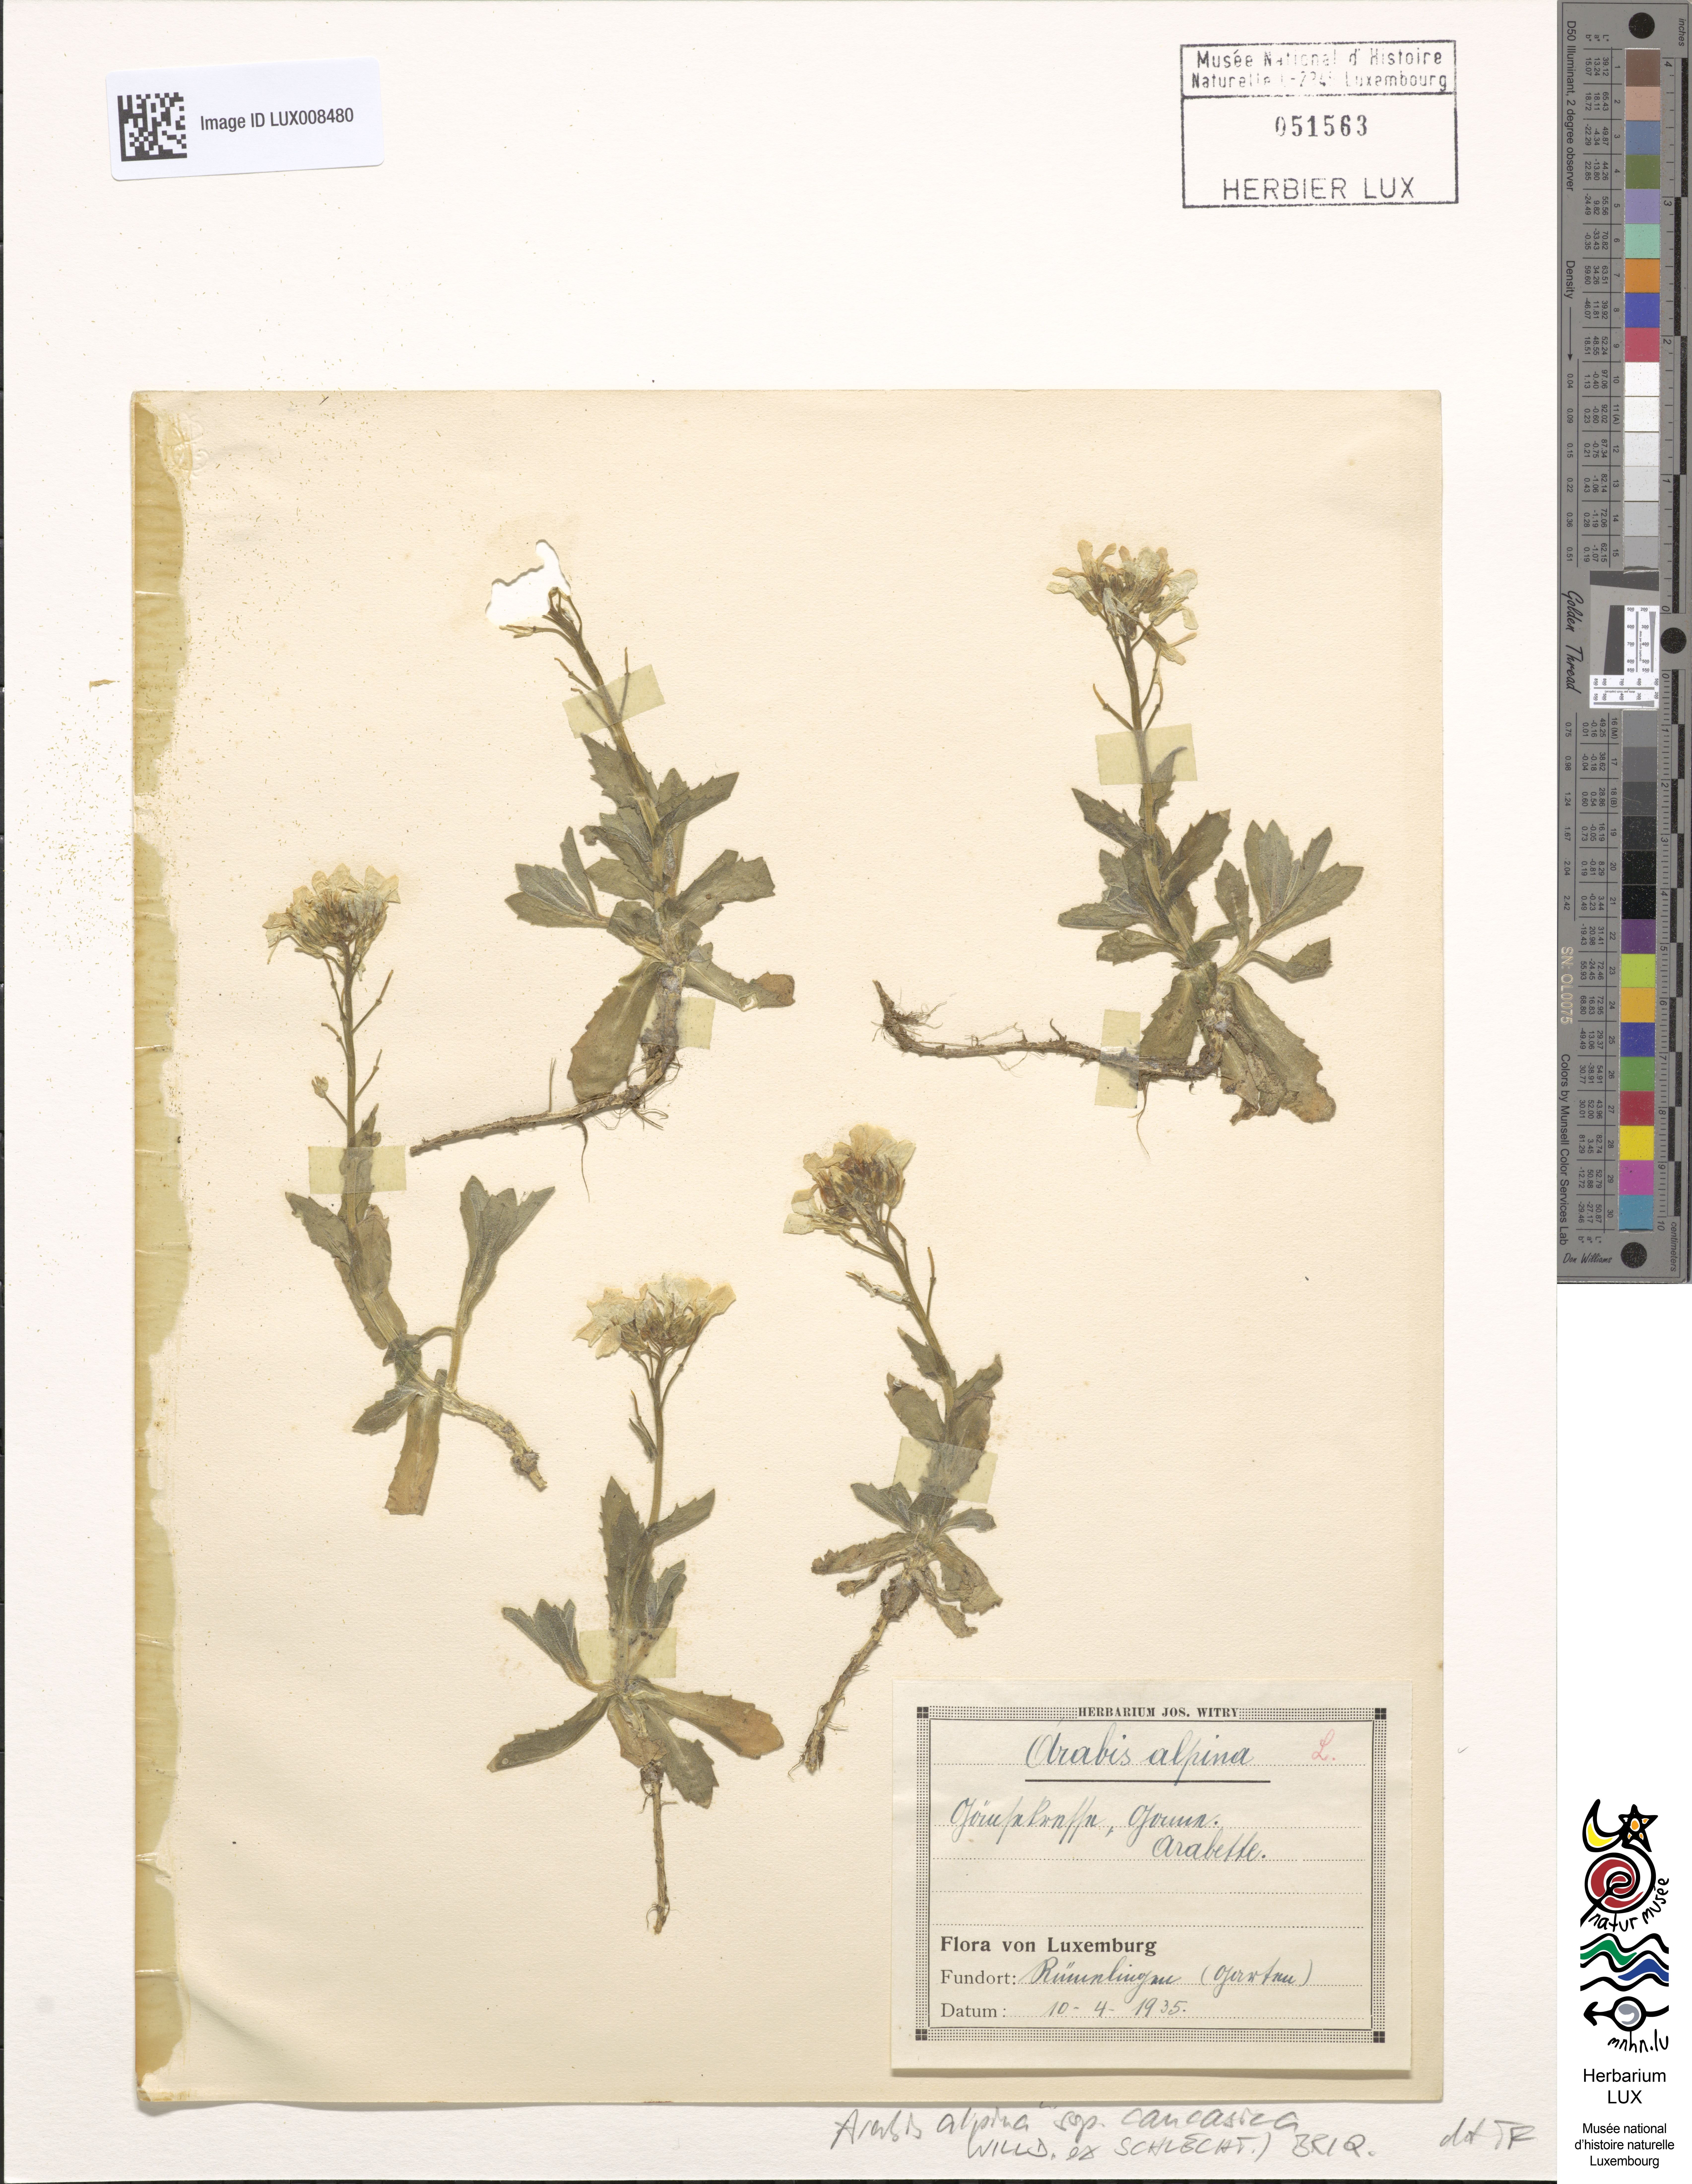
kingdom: Plantae
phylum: Tracheophyta
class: Magnoliopsida
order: Brassicales
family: Brassicaceae
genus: Arabis
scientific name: Arabis caucasica
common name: Gray rockcress
